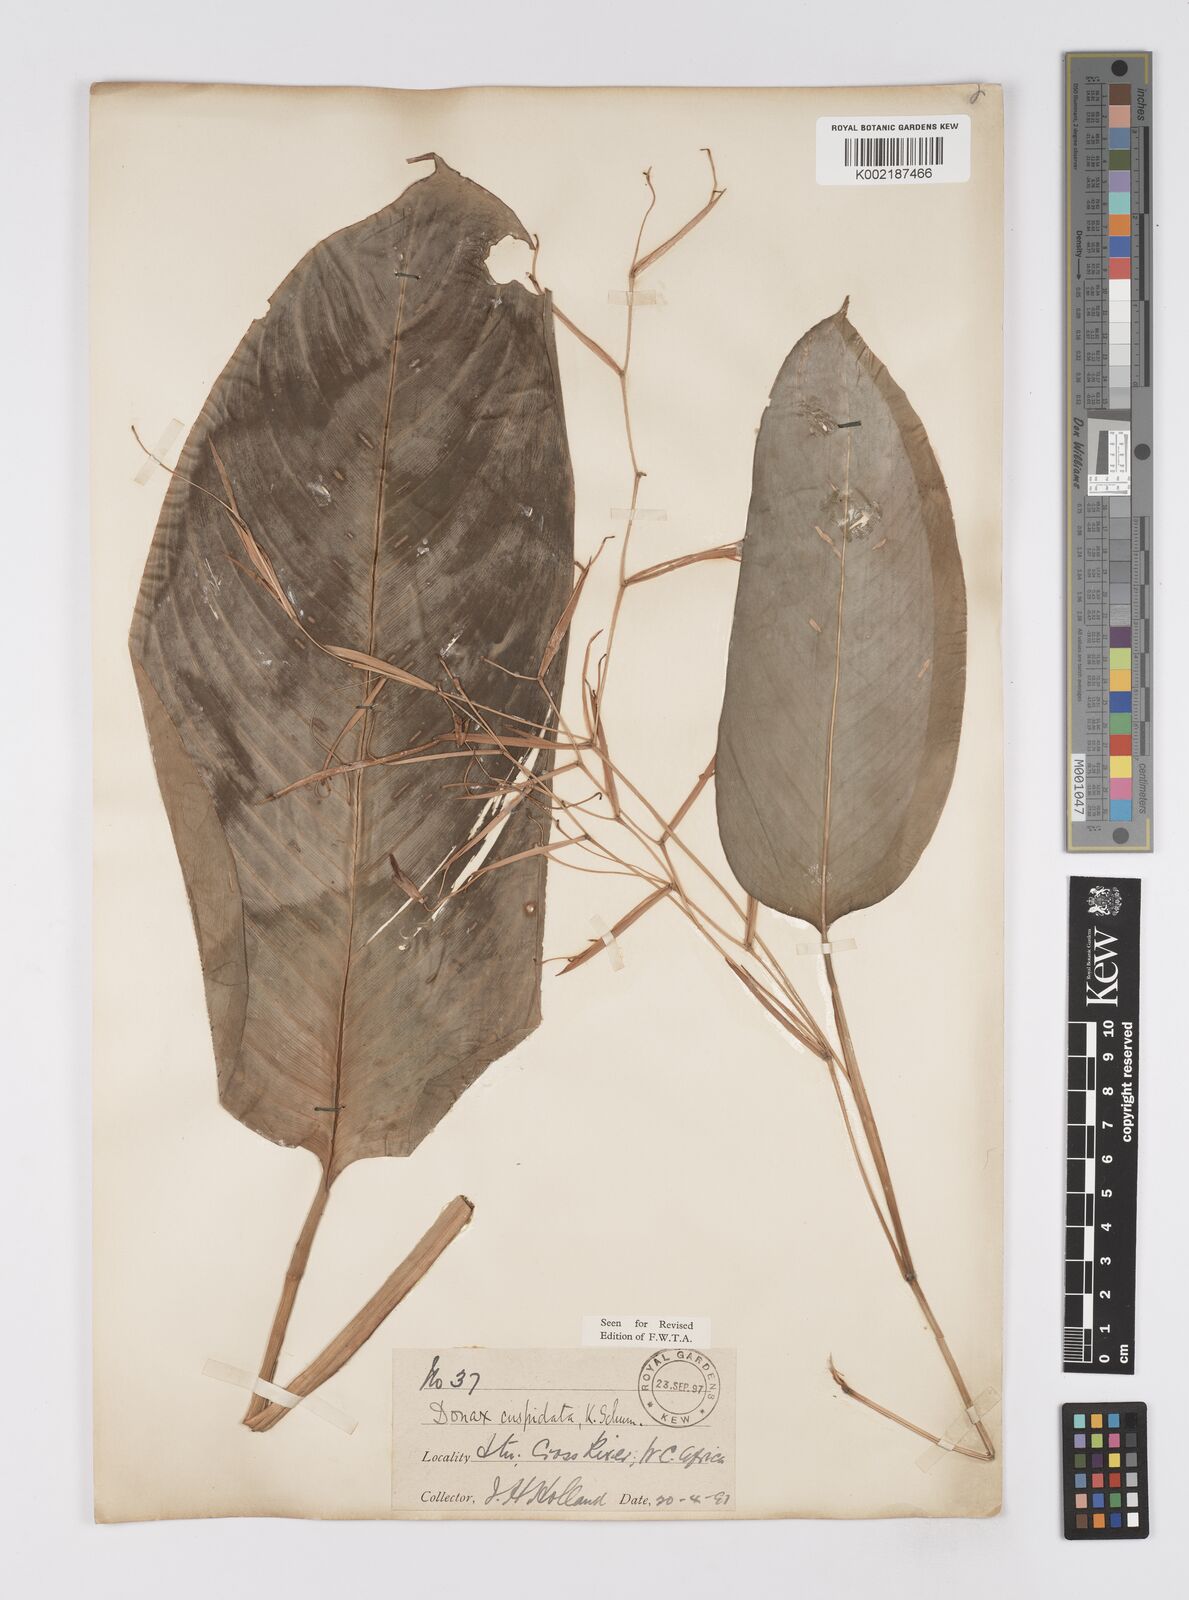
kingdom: Plantae
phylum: Tracheophyta
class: Liliopsida
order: Zingiberales
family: Marantaceae
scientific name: Marantaceae
